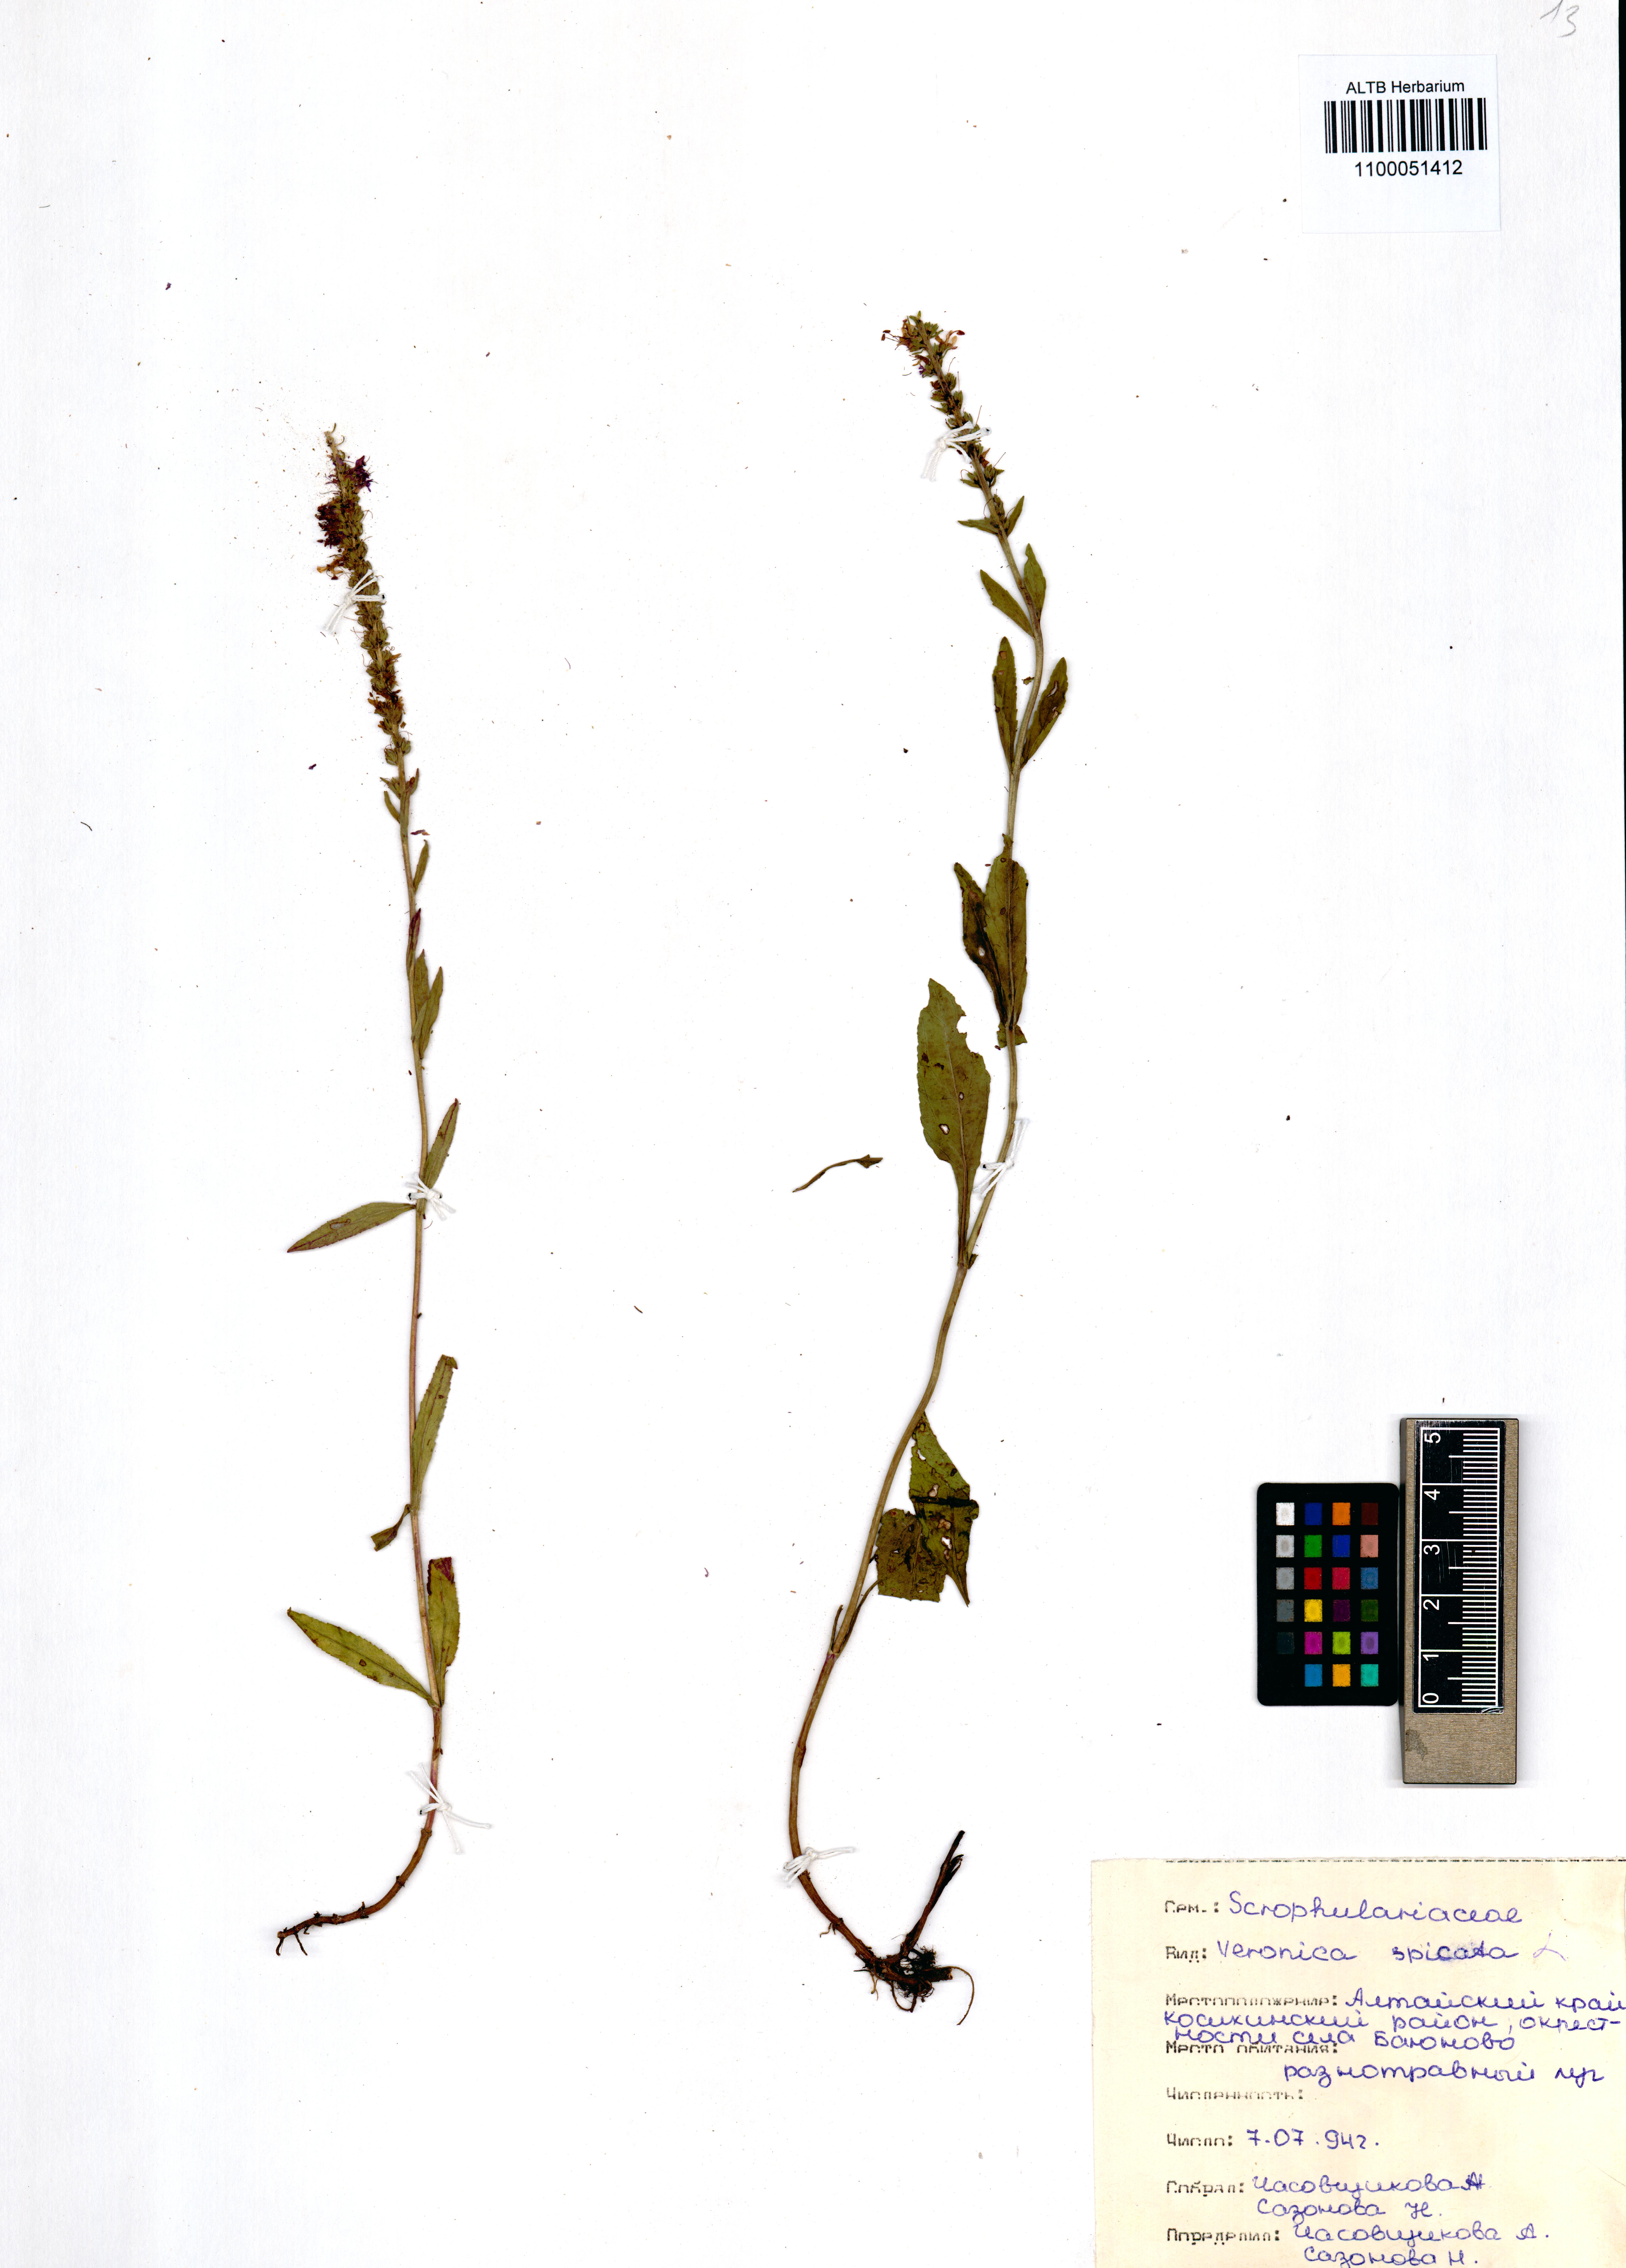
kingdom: Plantae
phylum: Tracheophyta
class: Magnoliopsida
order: Lamiales
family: Plantaginaceae
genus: Veronica
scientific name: Veronica spicata
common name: Spiked speedwell
